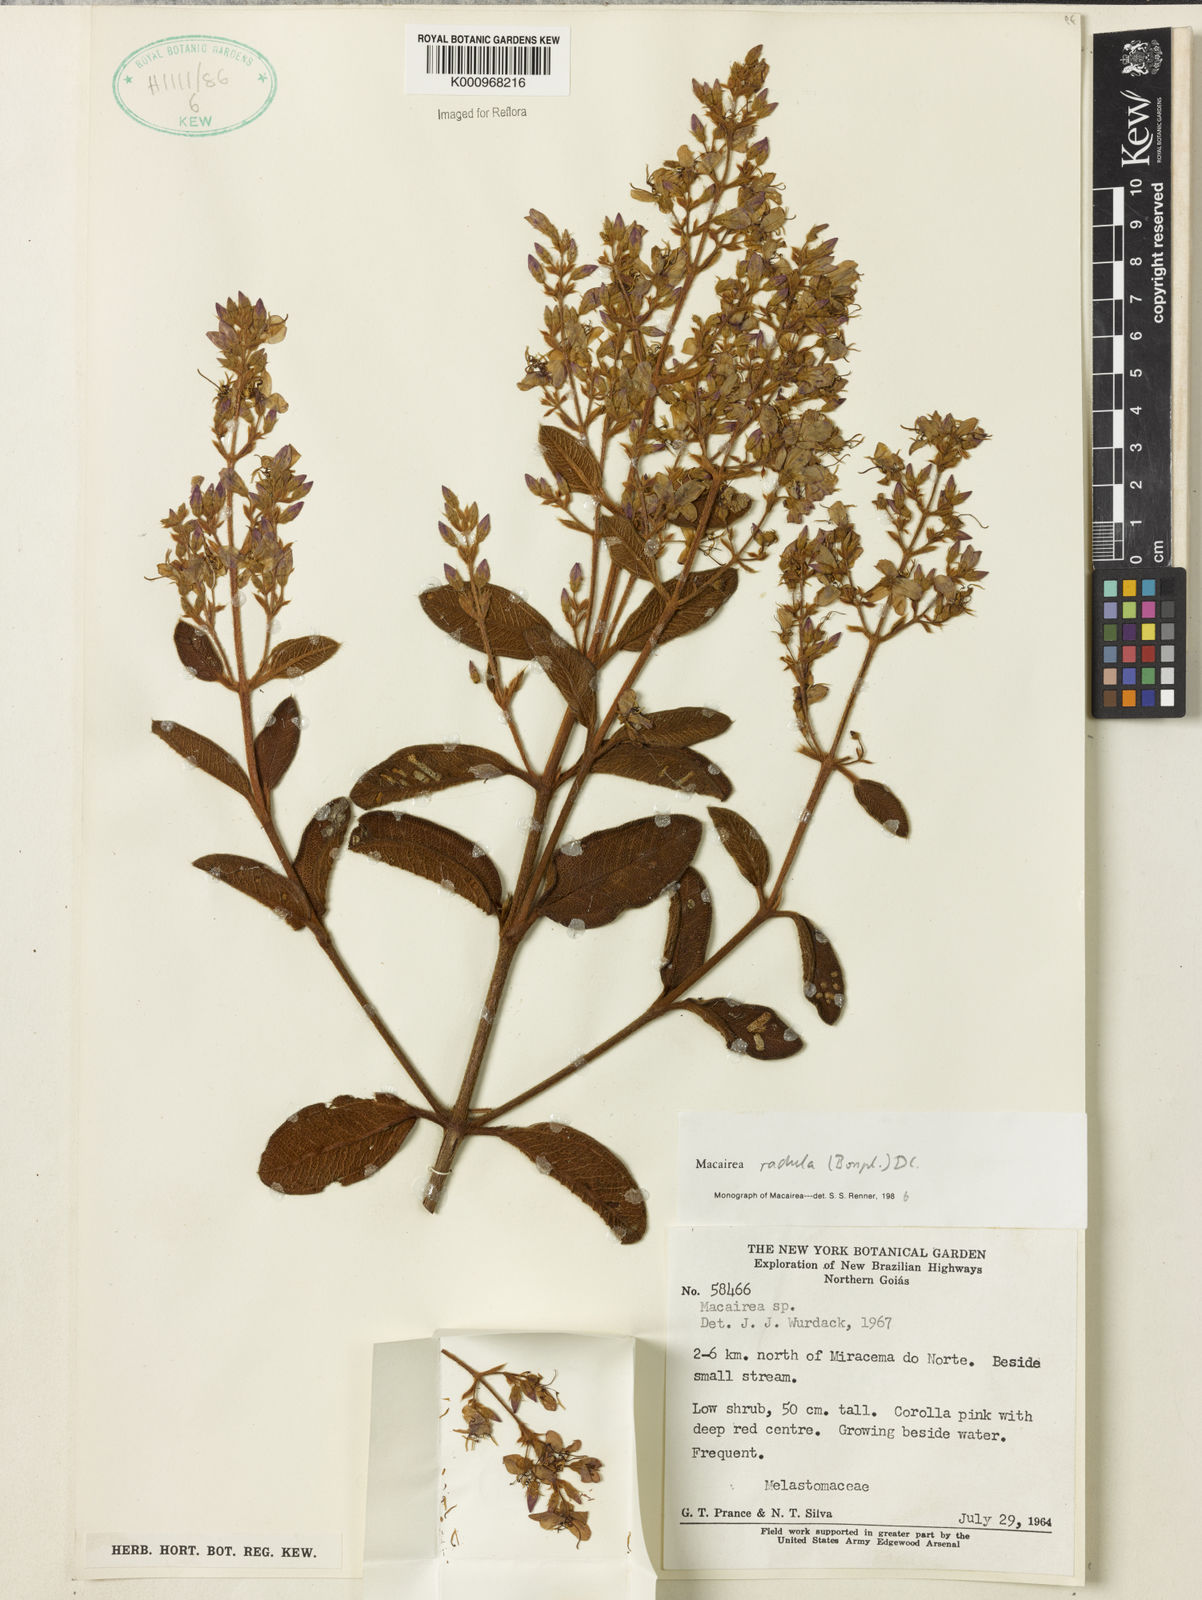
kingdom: Plantae
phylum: Tracheophyta
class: Magnoliopsida
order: Myrtales
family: Melastomataceae
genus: Macairea
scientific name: Macairea radula
